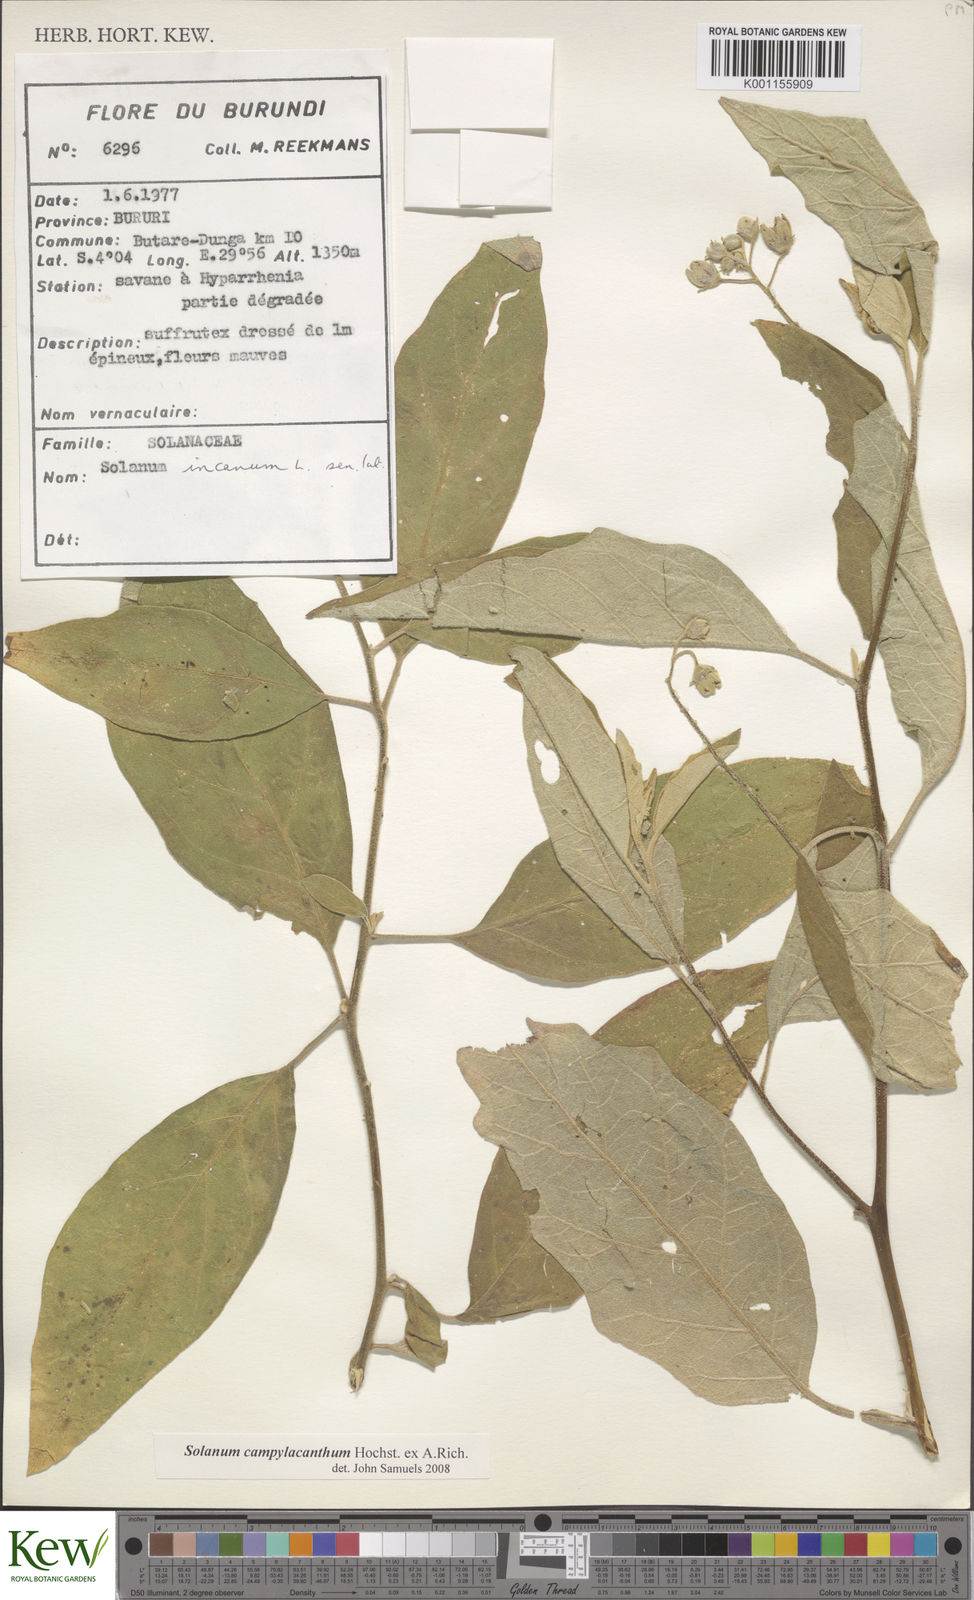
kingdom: Plantae
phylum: Tracheophyta
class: Magnoliopsida
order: Solanales
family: Solanaceae
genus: Solanum
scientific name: Solanum campylacanthum
